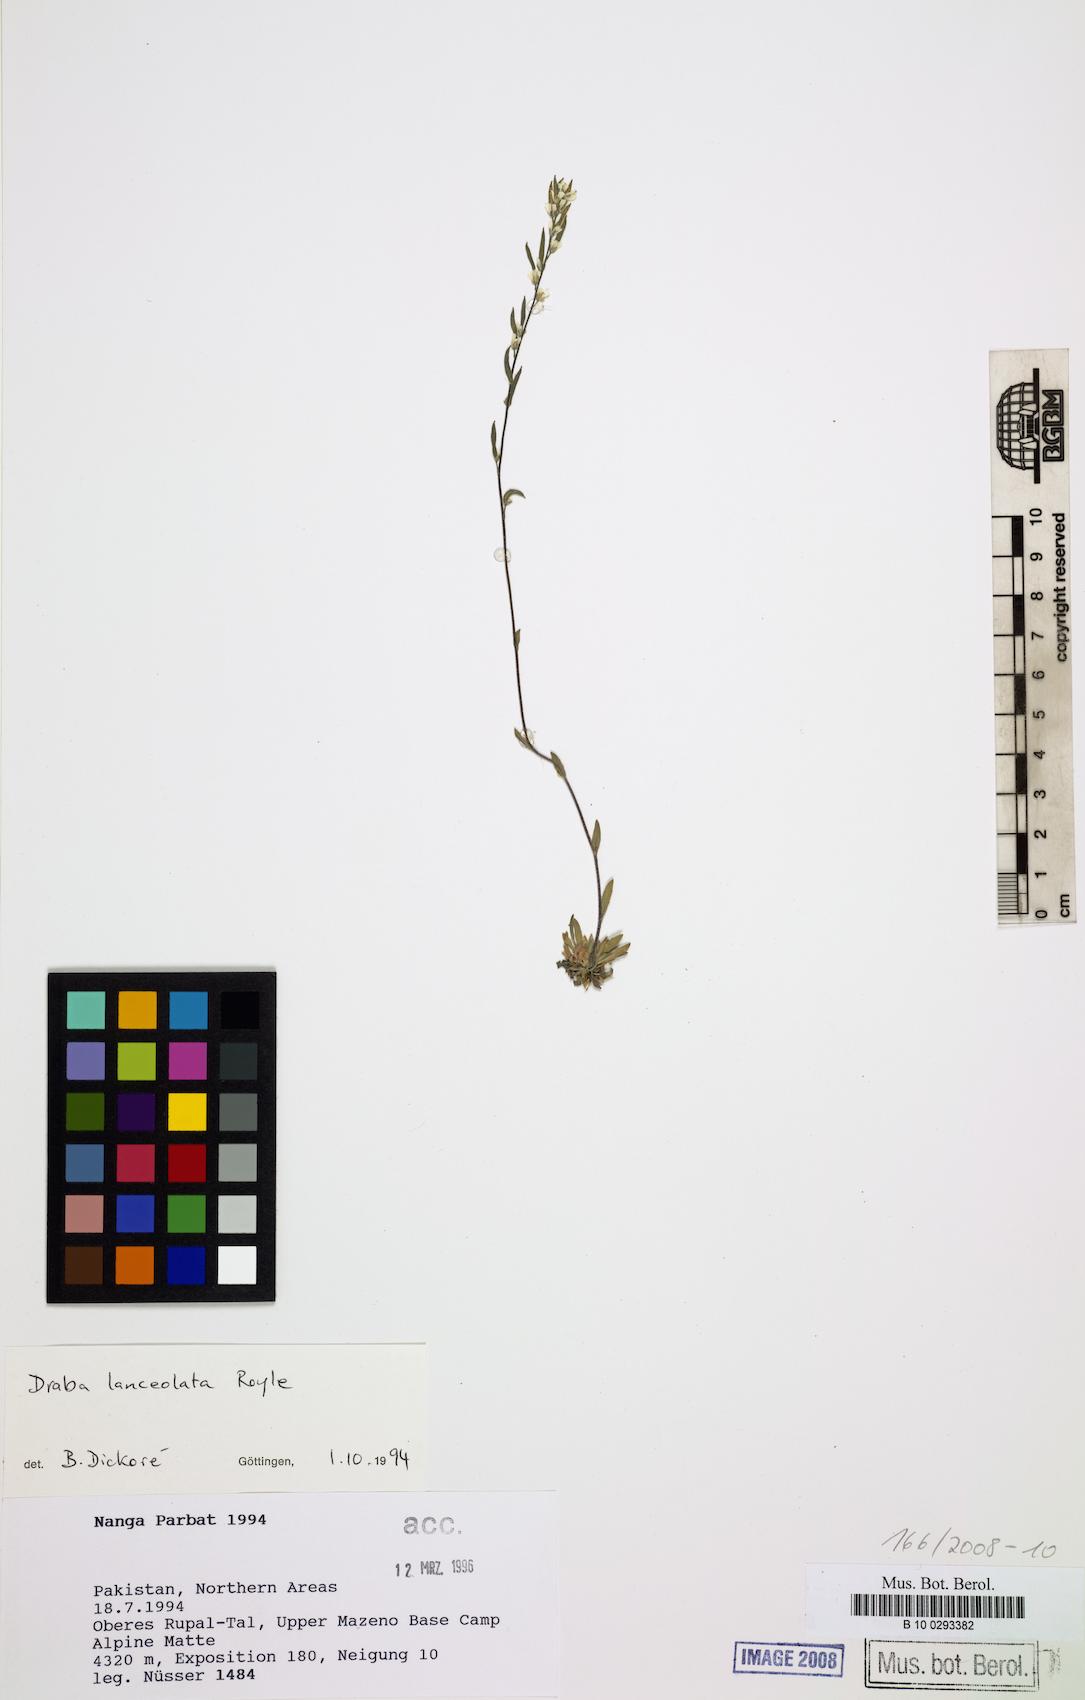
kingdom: Plantae
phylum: Tracheophyta
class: Magnoliopsida
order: Brassicales
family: Brassicaceae
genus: Draba
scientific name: Draba lanceolata
